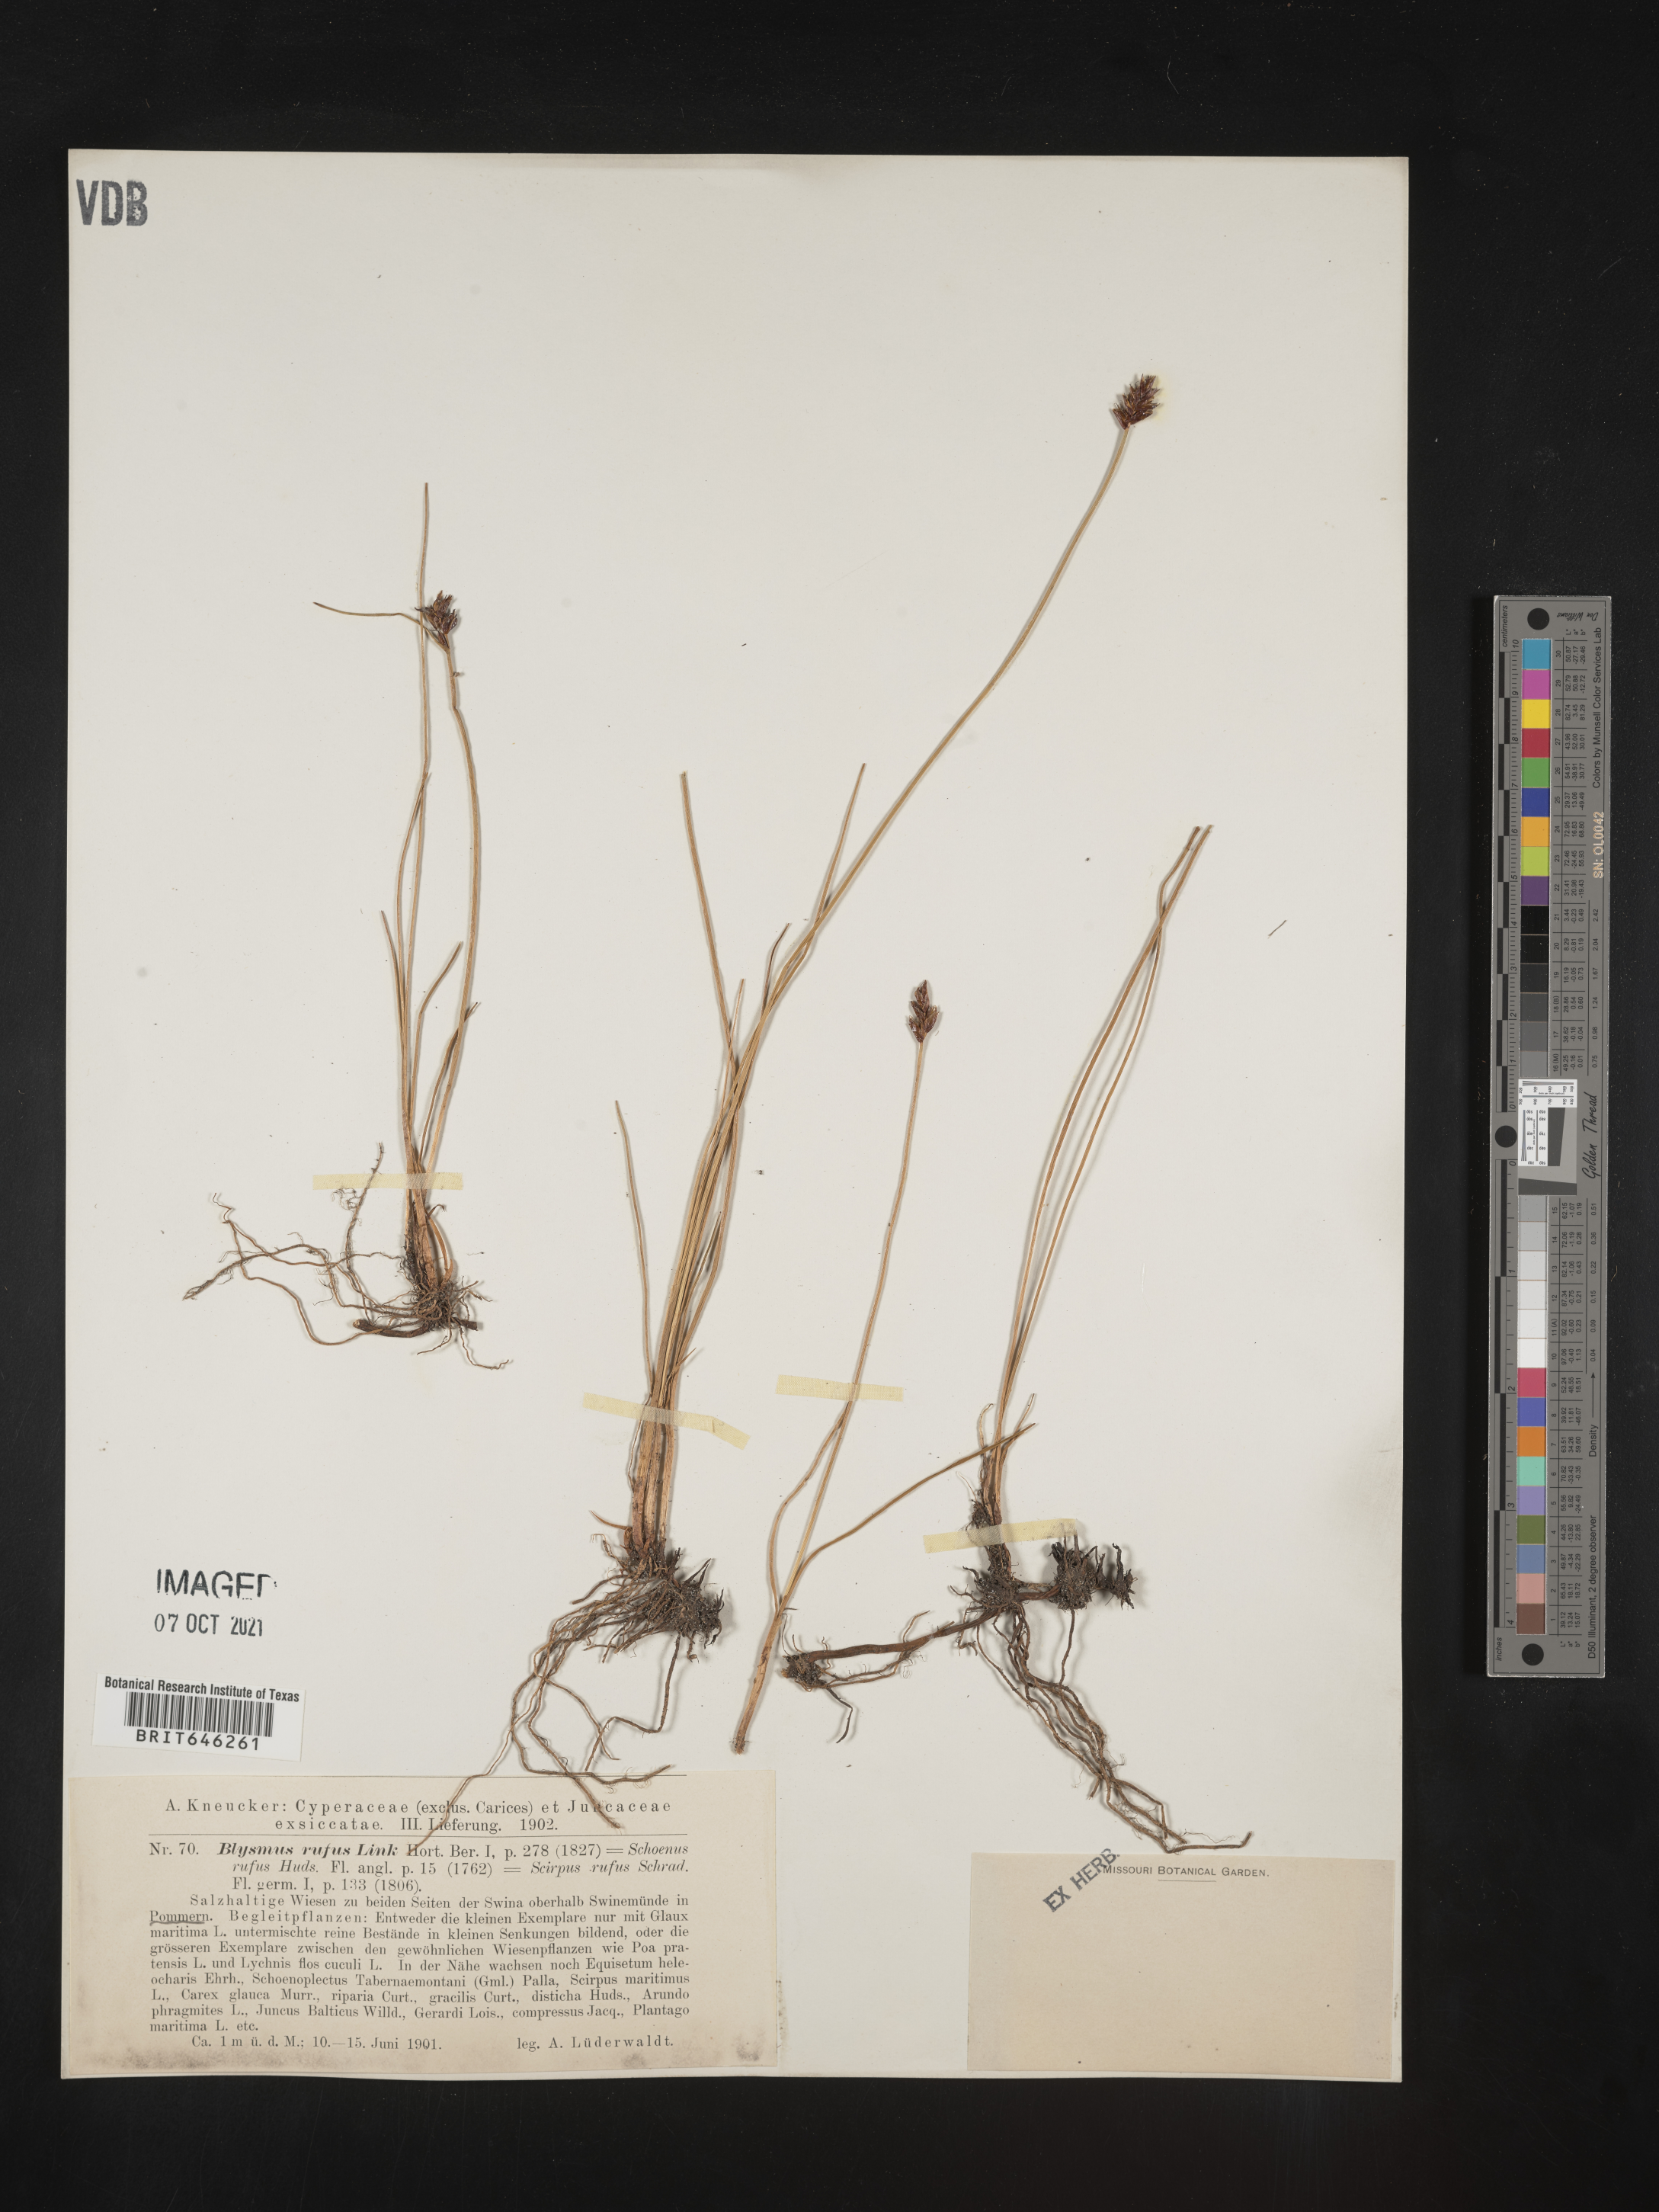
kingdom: Plantae
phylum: Tracheophyta
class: Liliopsida
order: Poales
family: Cyperaceae
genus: Carex
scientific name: Carex
